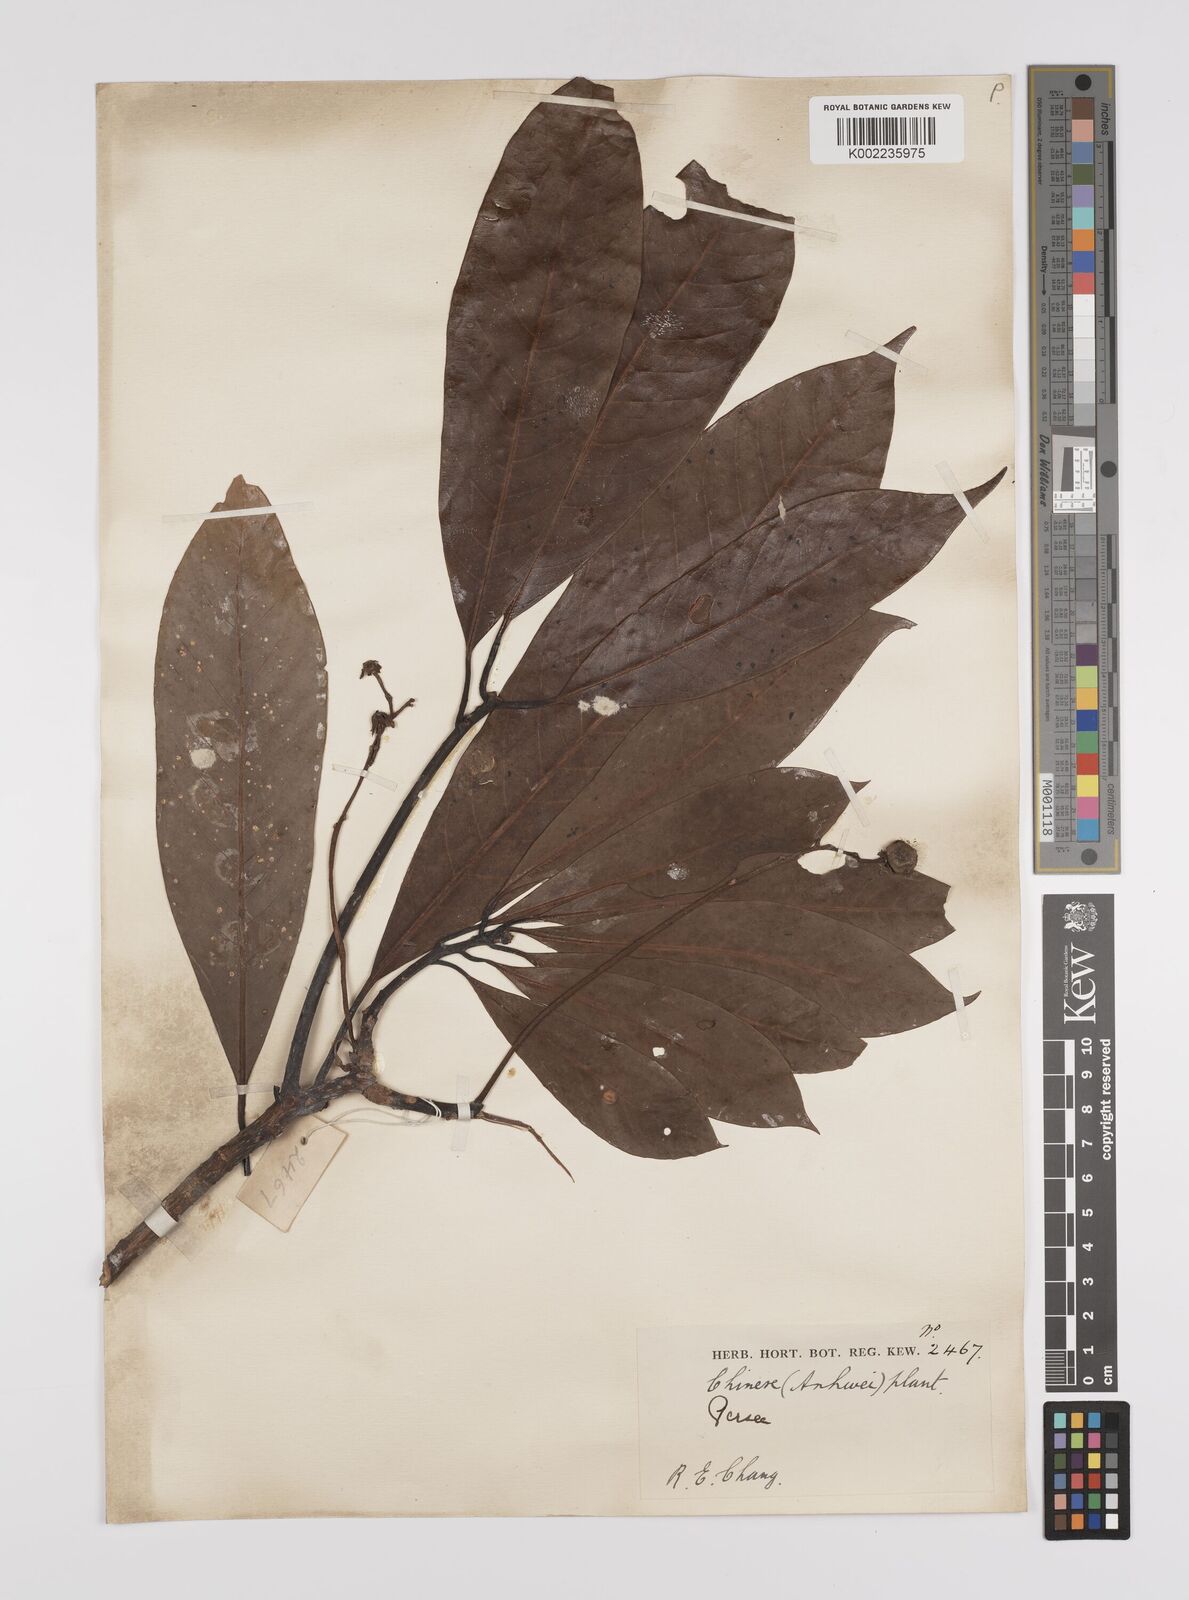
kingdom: Plantae
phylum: Tracheophyta
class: Magnoliopsida
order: Laurales
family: Lauraceae
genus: Persea
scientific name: Persea
